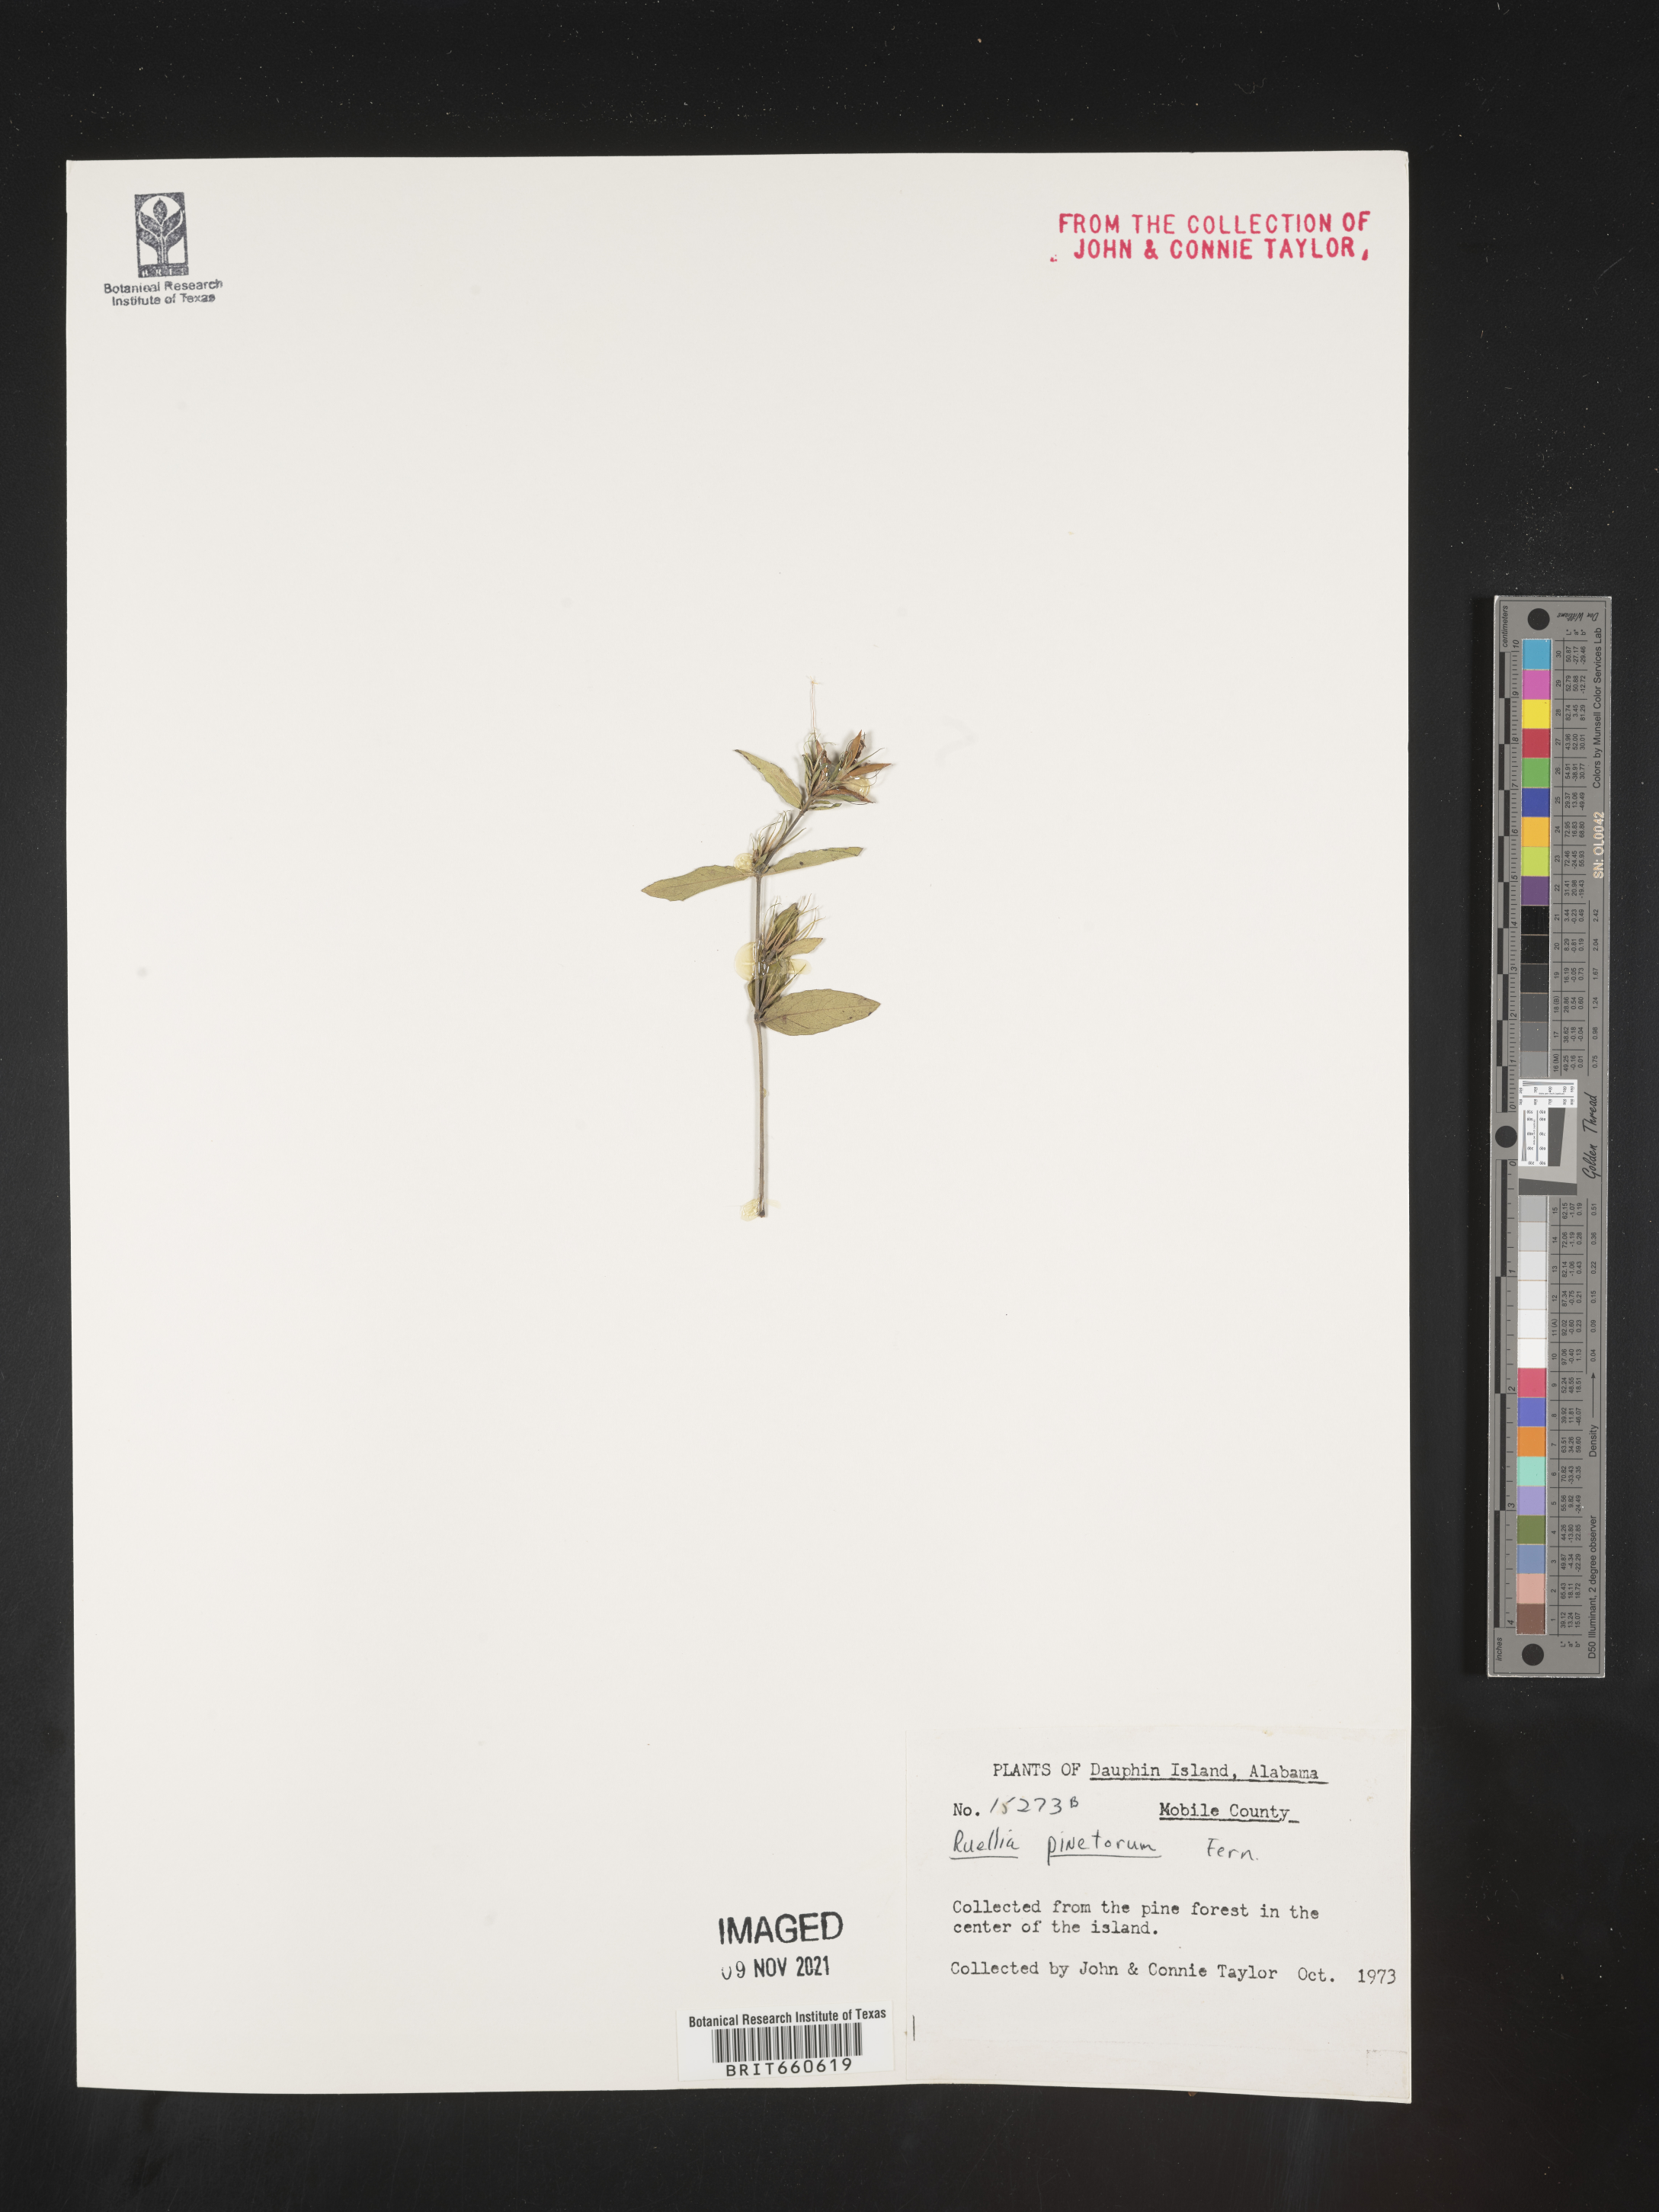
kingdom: Plantae
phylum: Tracheophyta
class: Magnoliopsida
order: Lamiales
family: Acanthaceae
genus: Ruellia
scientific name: Ruellia pedunculata
